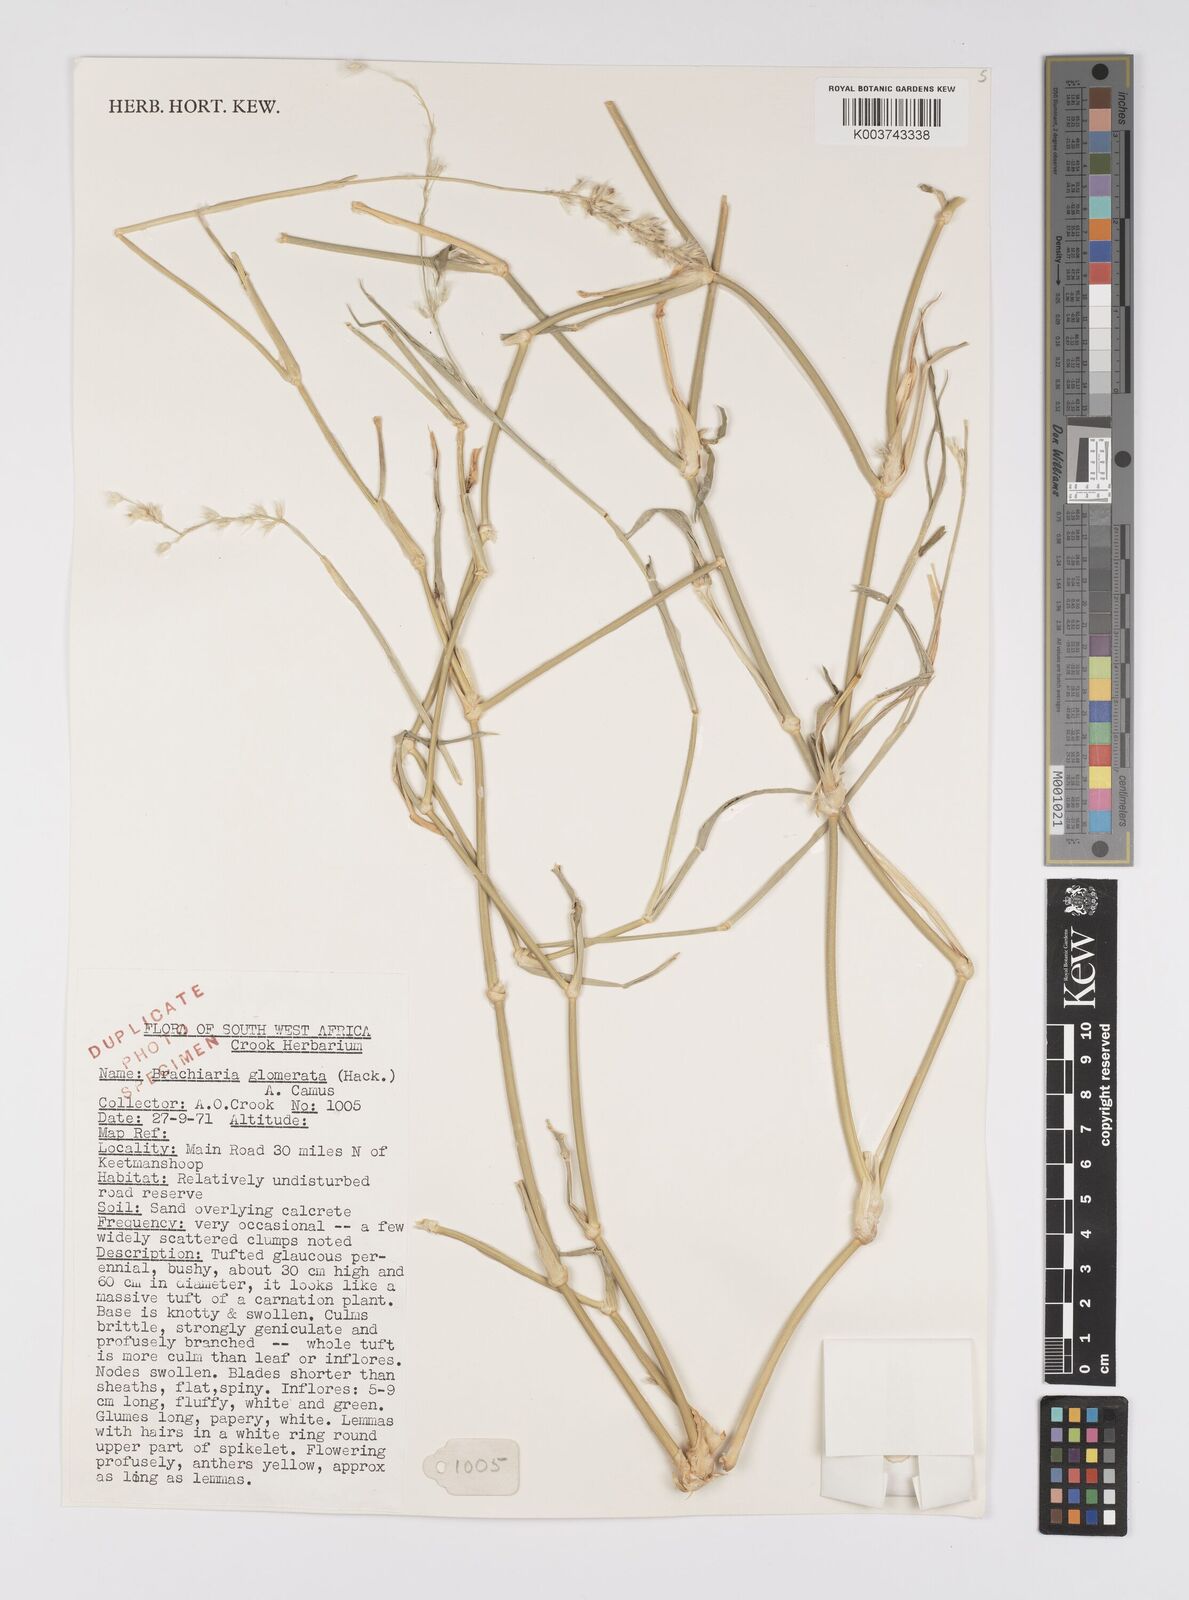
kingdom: Plantae
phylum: Tracheophyta
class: Liliopsida
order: Poales
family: Poaceae
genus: Urochloa
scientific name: Urochloa Brachiaria mesocoma
